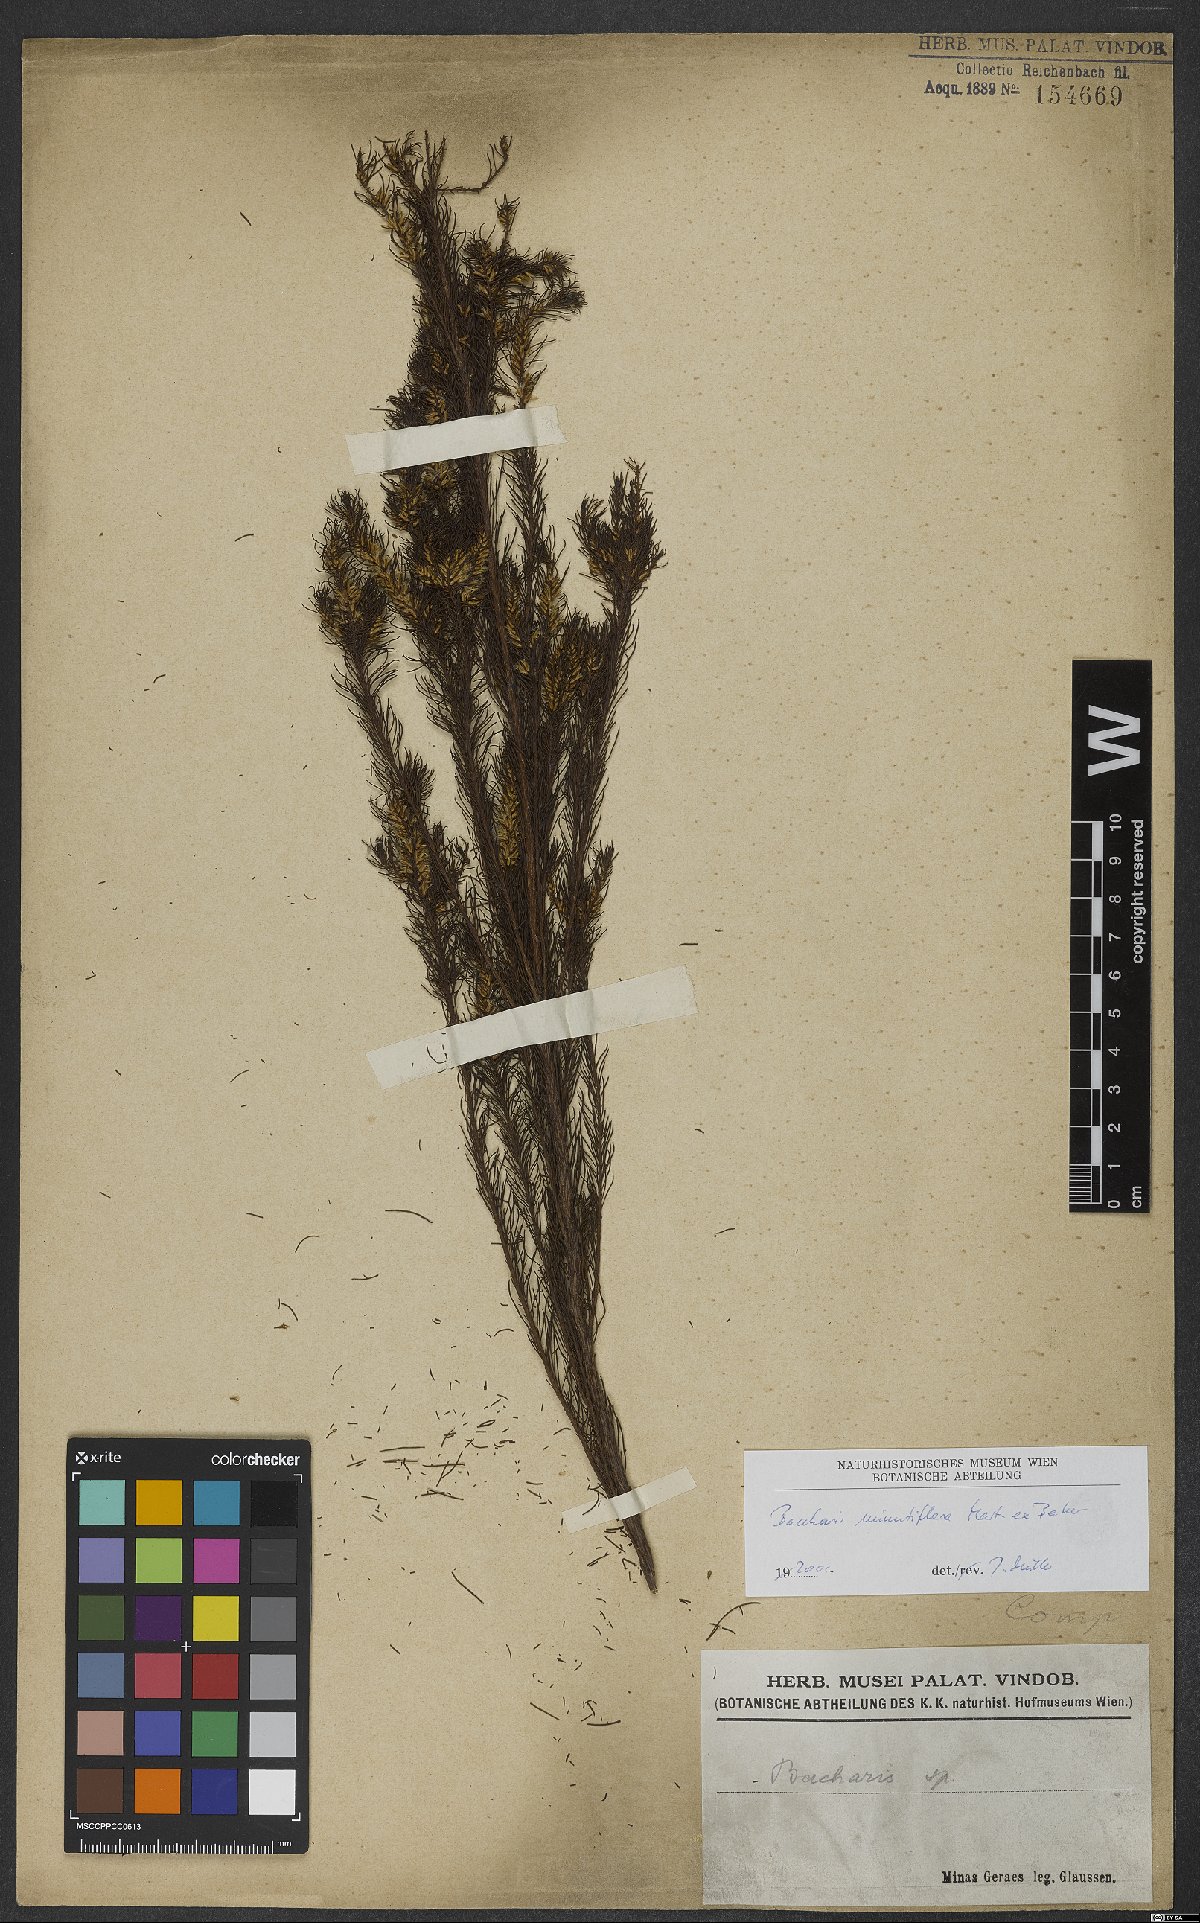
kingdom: Plantae
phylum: Tracheophyta
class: Magnoliopsida
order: Asterales
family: Asteraceae
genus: Baccharis
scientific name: Baccharis minutiflora
